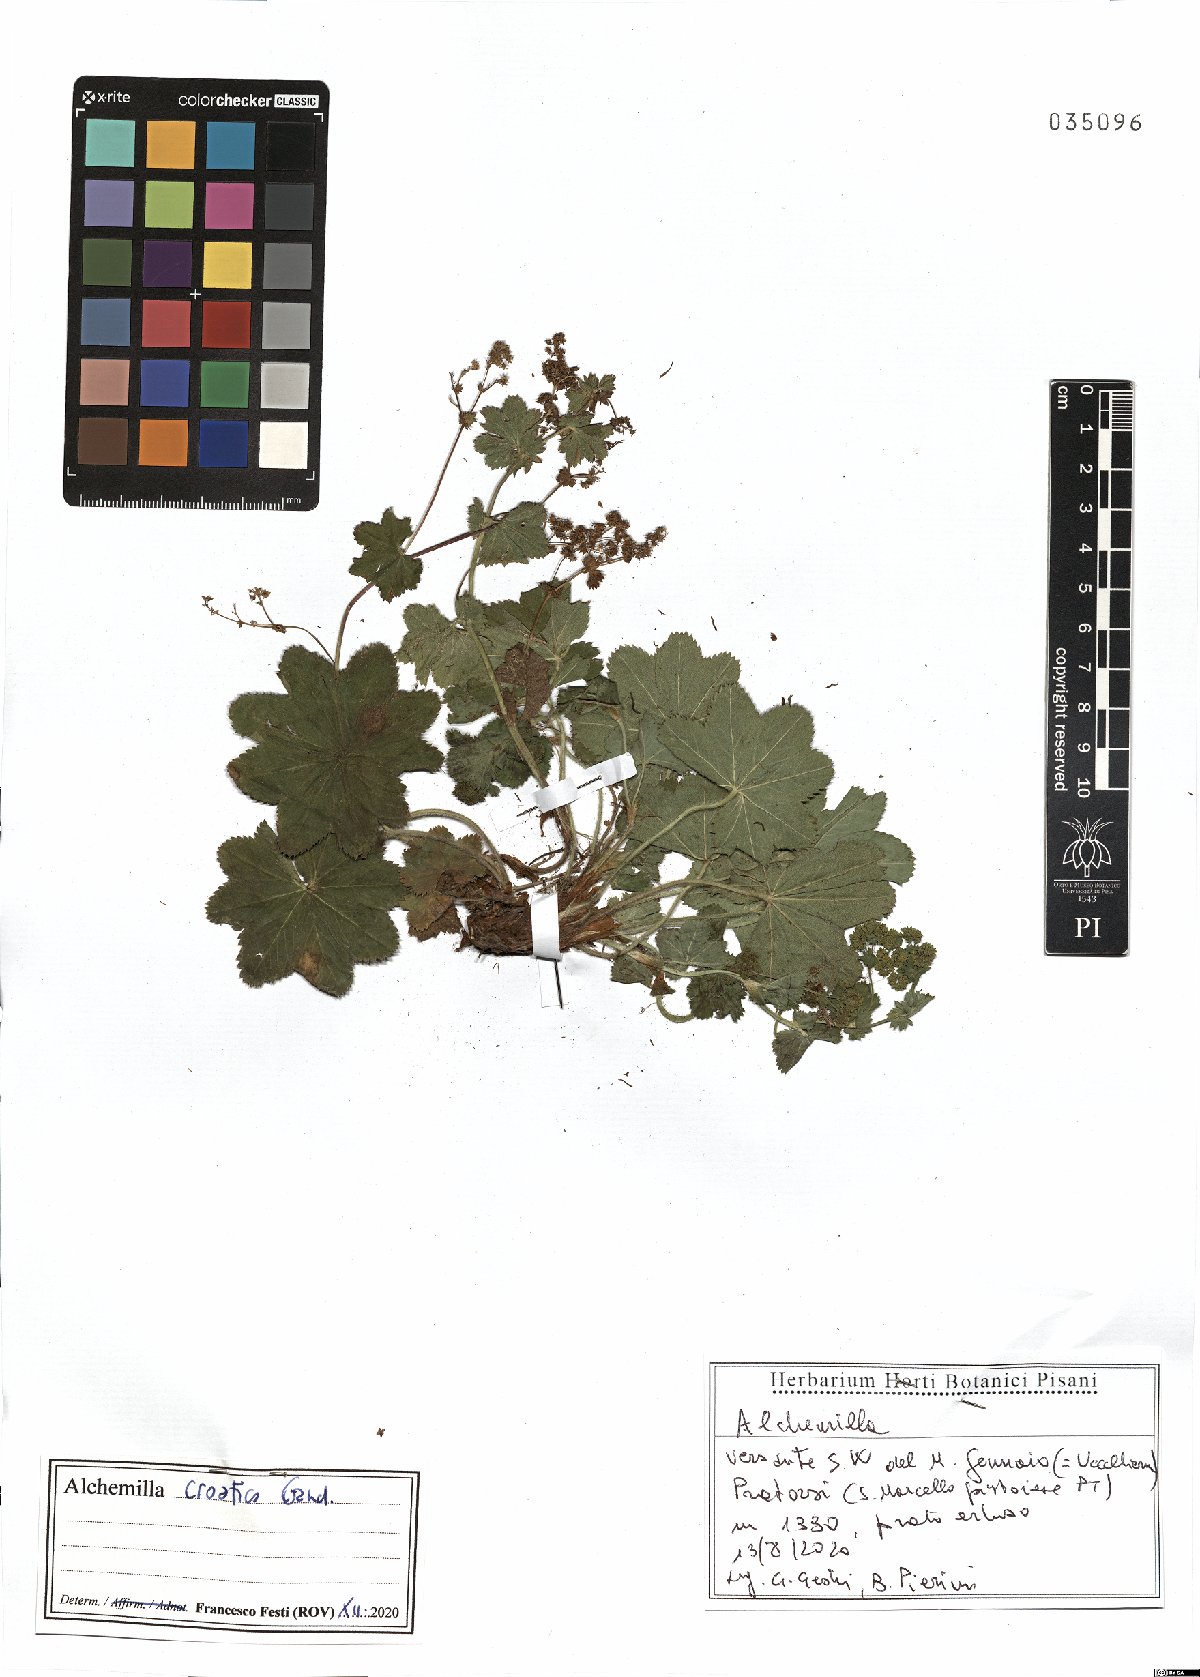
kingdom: Plantae
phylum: Tracheophyta
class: Magnoliopsida
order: Rosales
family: Rosaceae
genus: Alchemilla
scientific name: Alchemilla croatica
